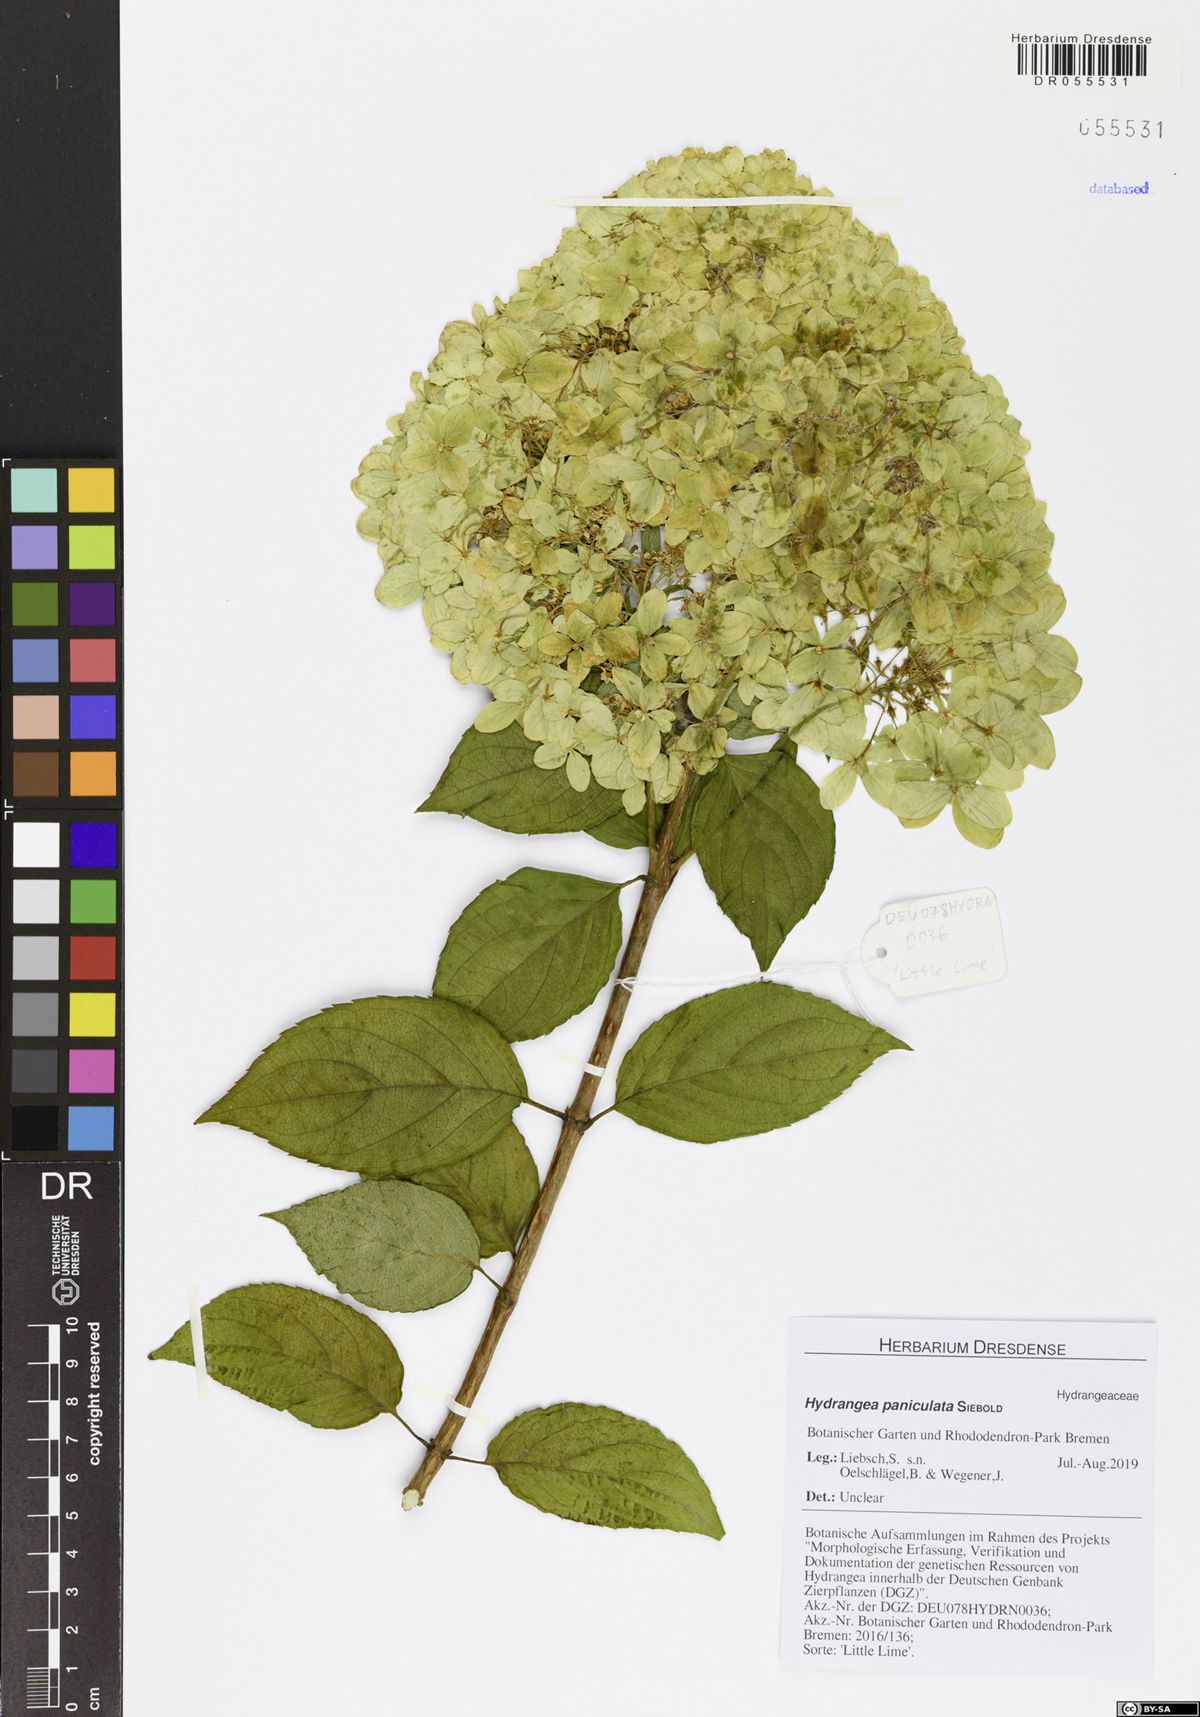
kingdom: Plantae
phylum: Tracheophyta
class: Magnoliopsida
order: Cornales
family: Hydrangeaceae
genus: Hydrangea
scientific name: Hydrangea paniculata
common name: Panicled hydrangea
